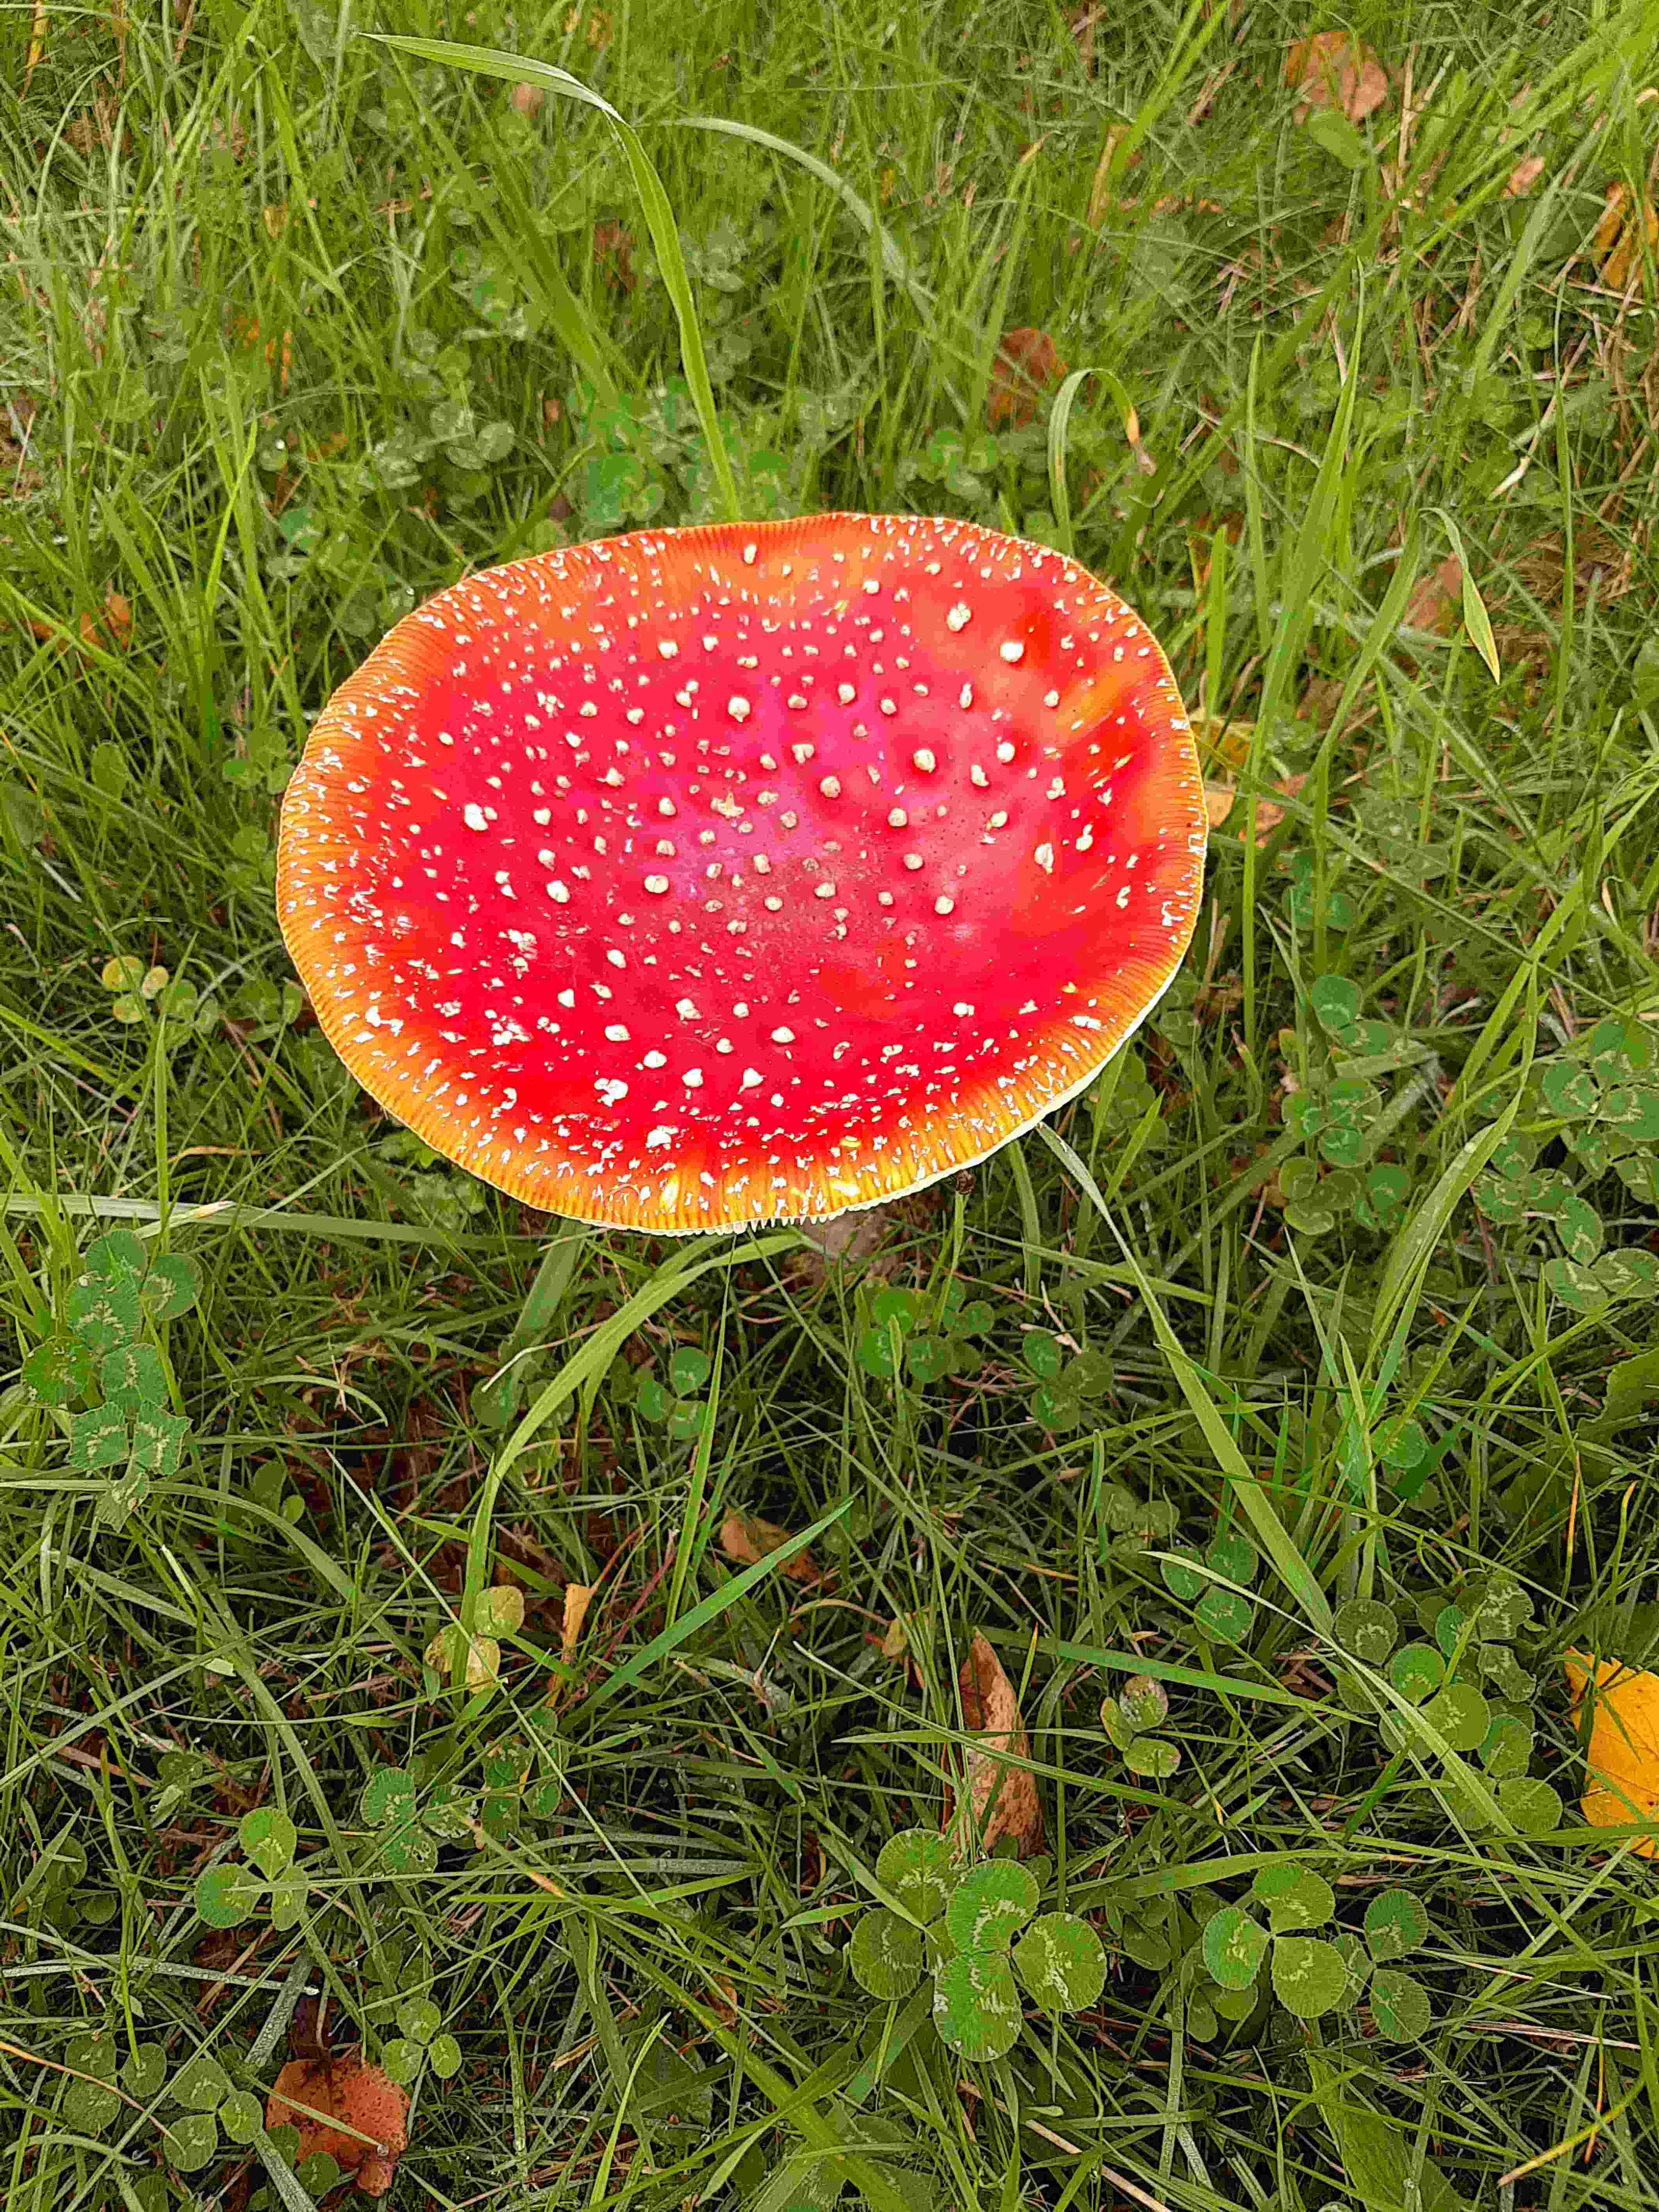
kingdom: Fungi
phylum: Basidiomycota
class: Agaricomycetes
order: Agaricales
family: Amanitaceae
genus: Amanita
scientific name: Amanita muscaria
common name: rød fluesvamp
